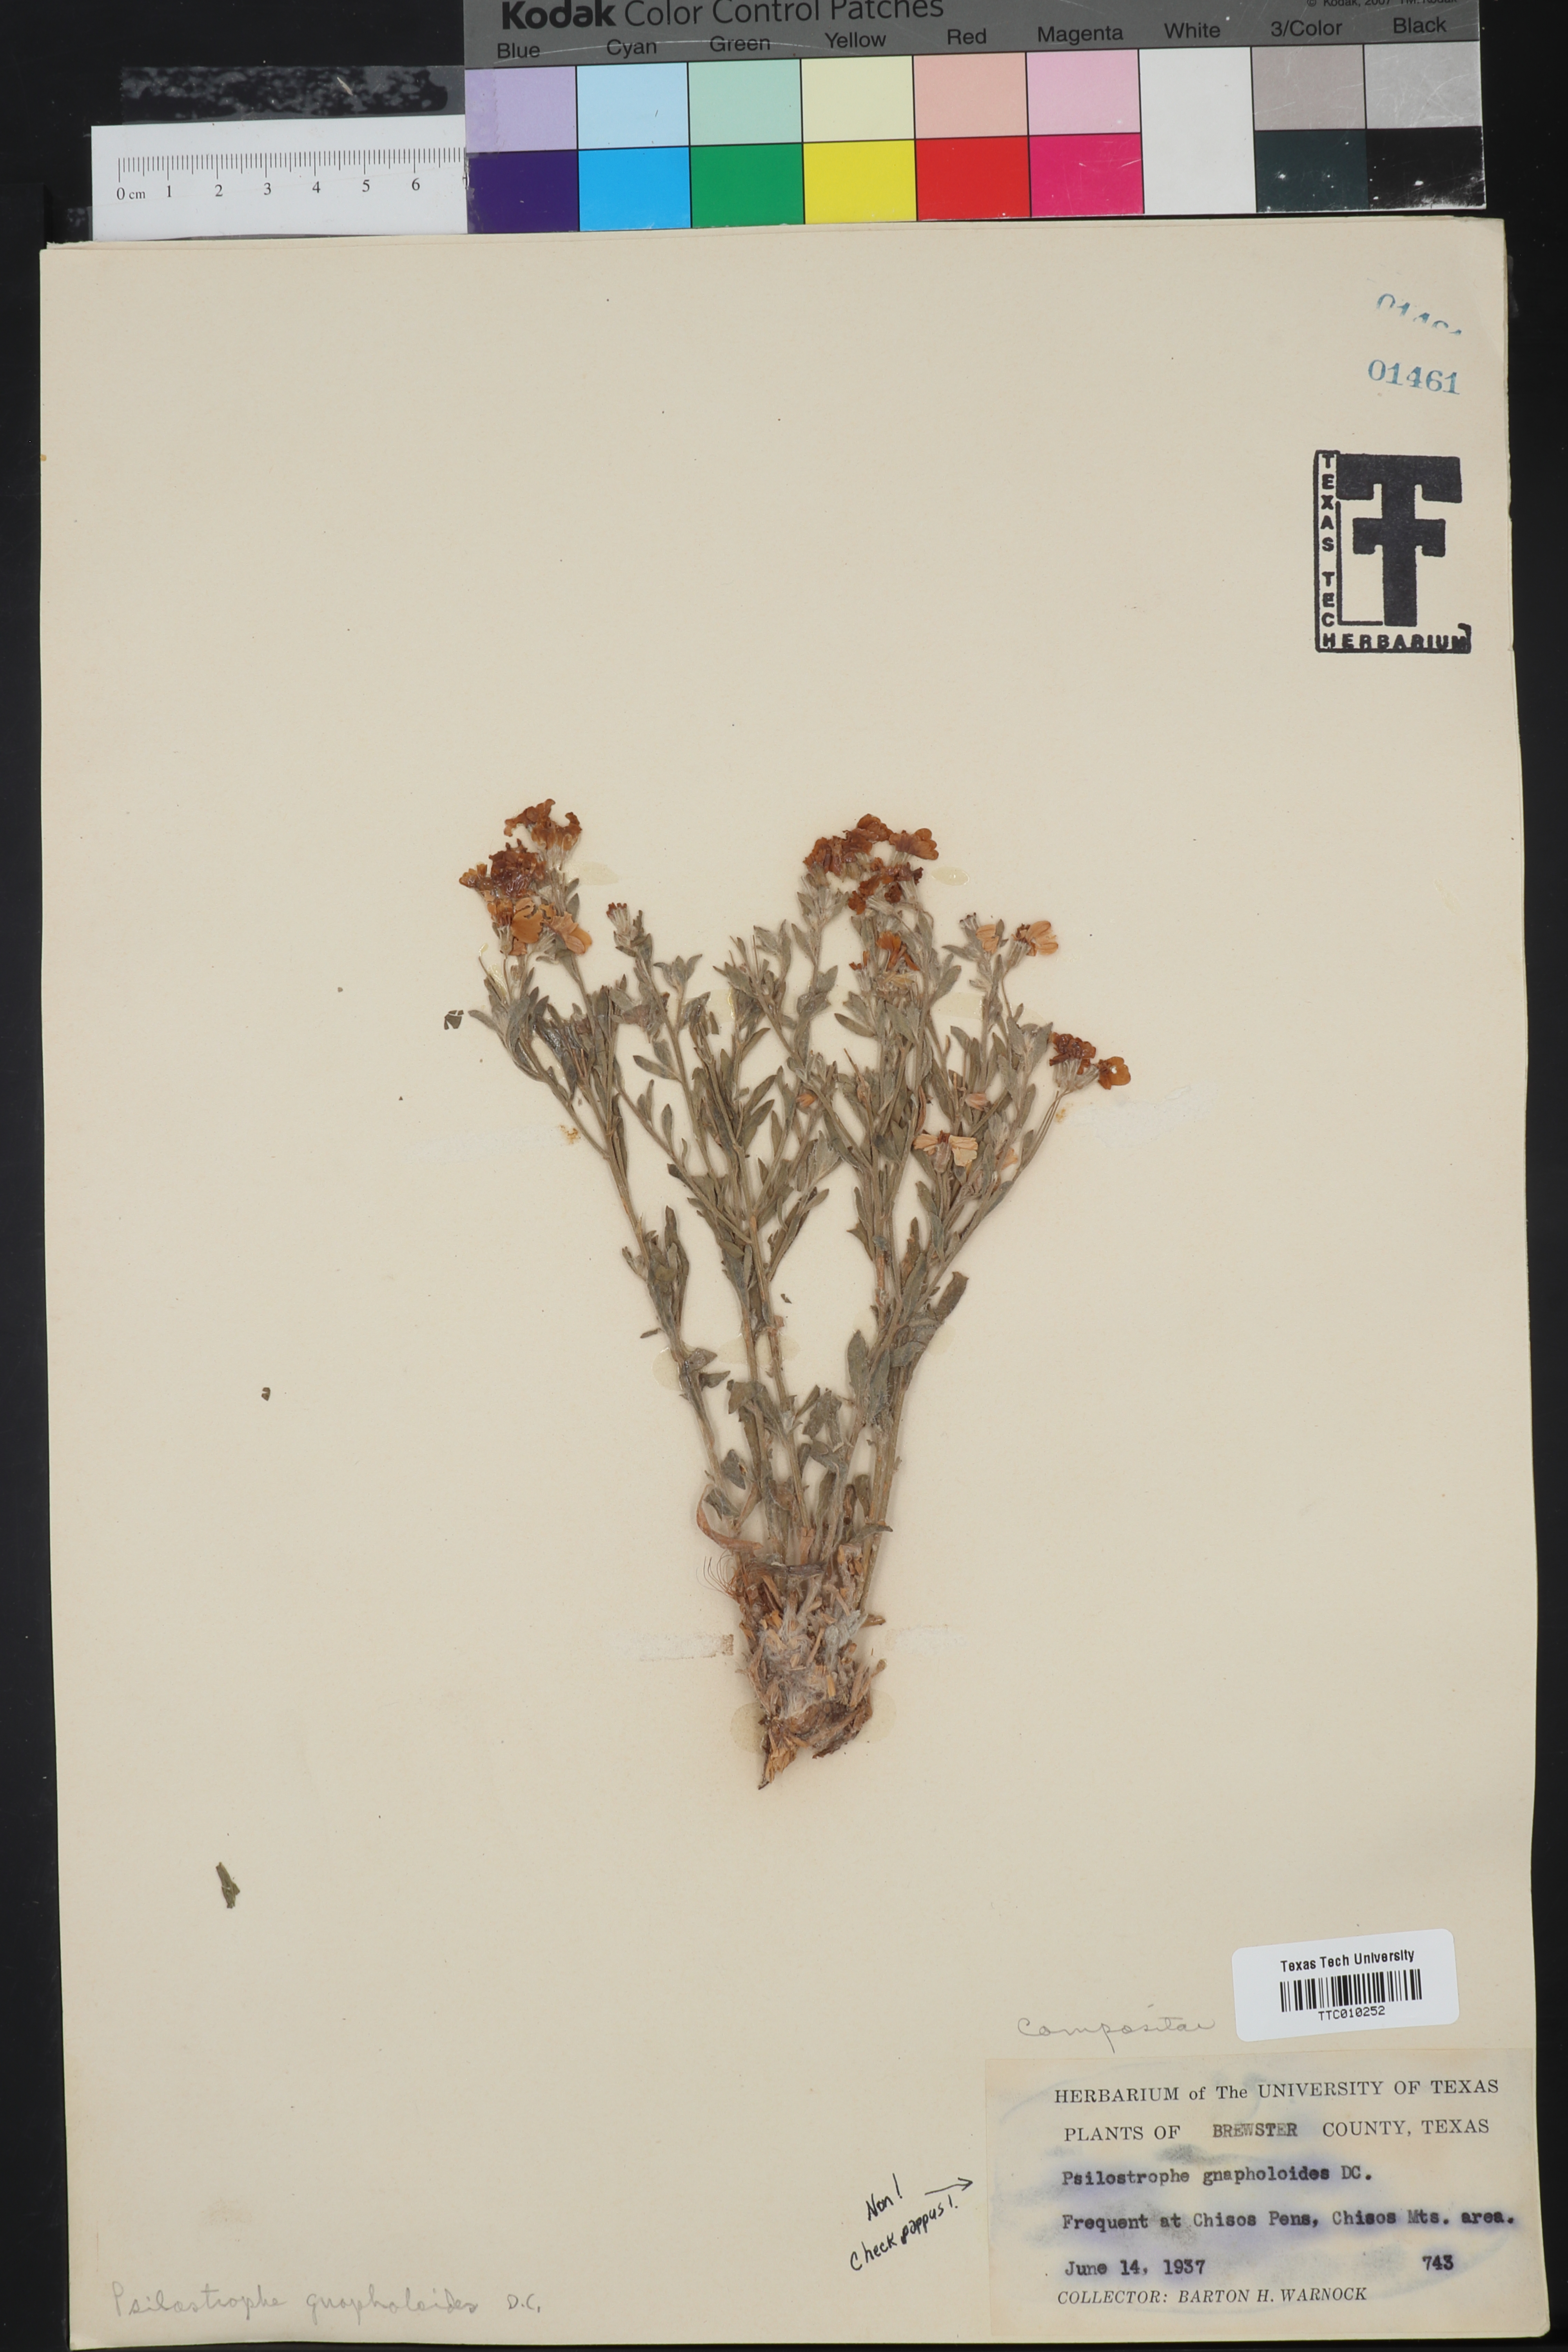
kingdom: Plantae
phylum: Tracheophyta
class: Magnoliopsida
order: Asterales
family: Asteraceae
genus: Psilostrophe
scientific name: Psilostrophe gnaphalioides
